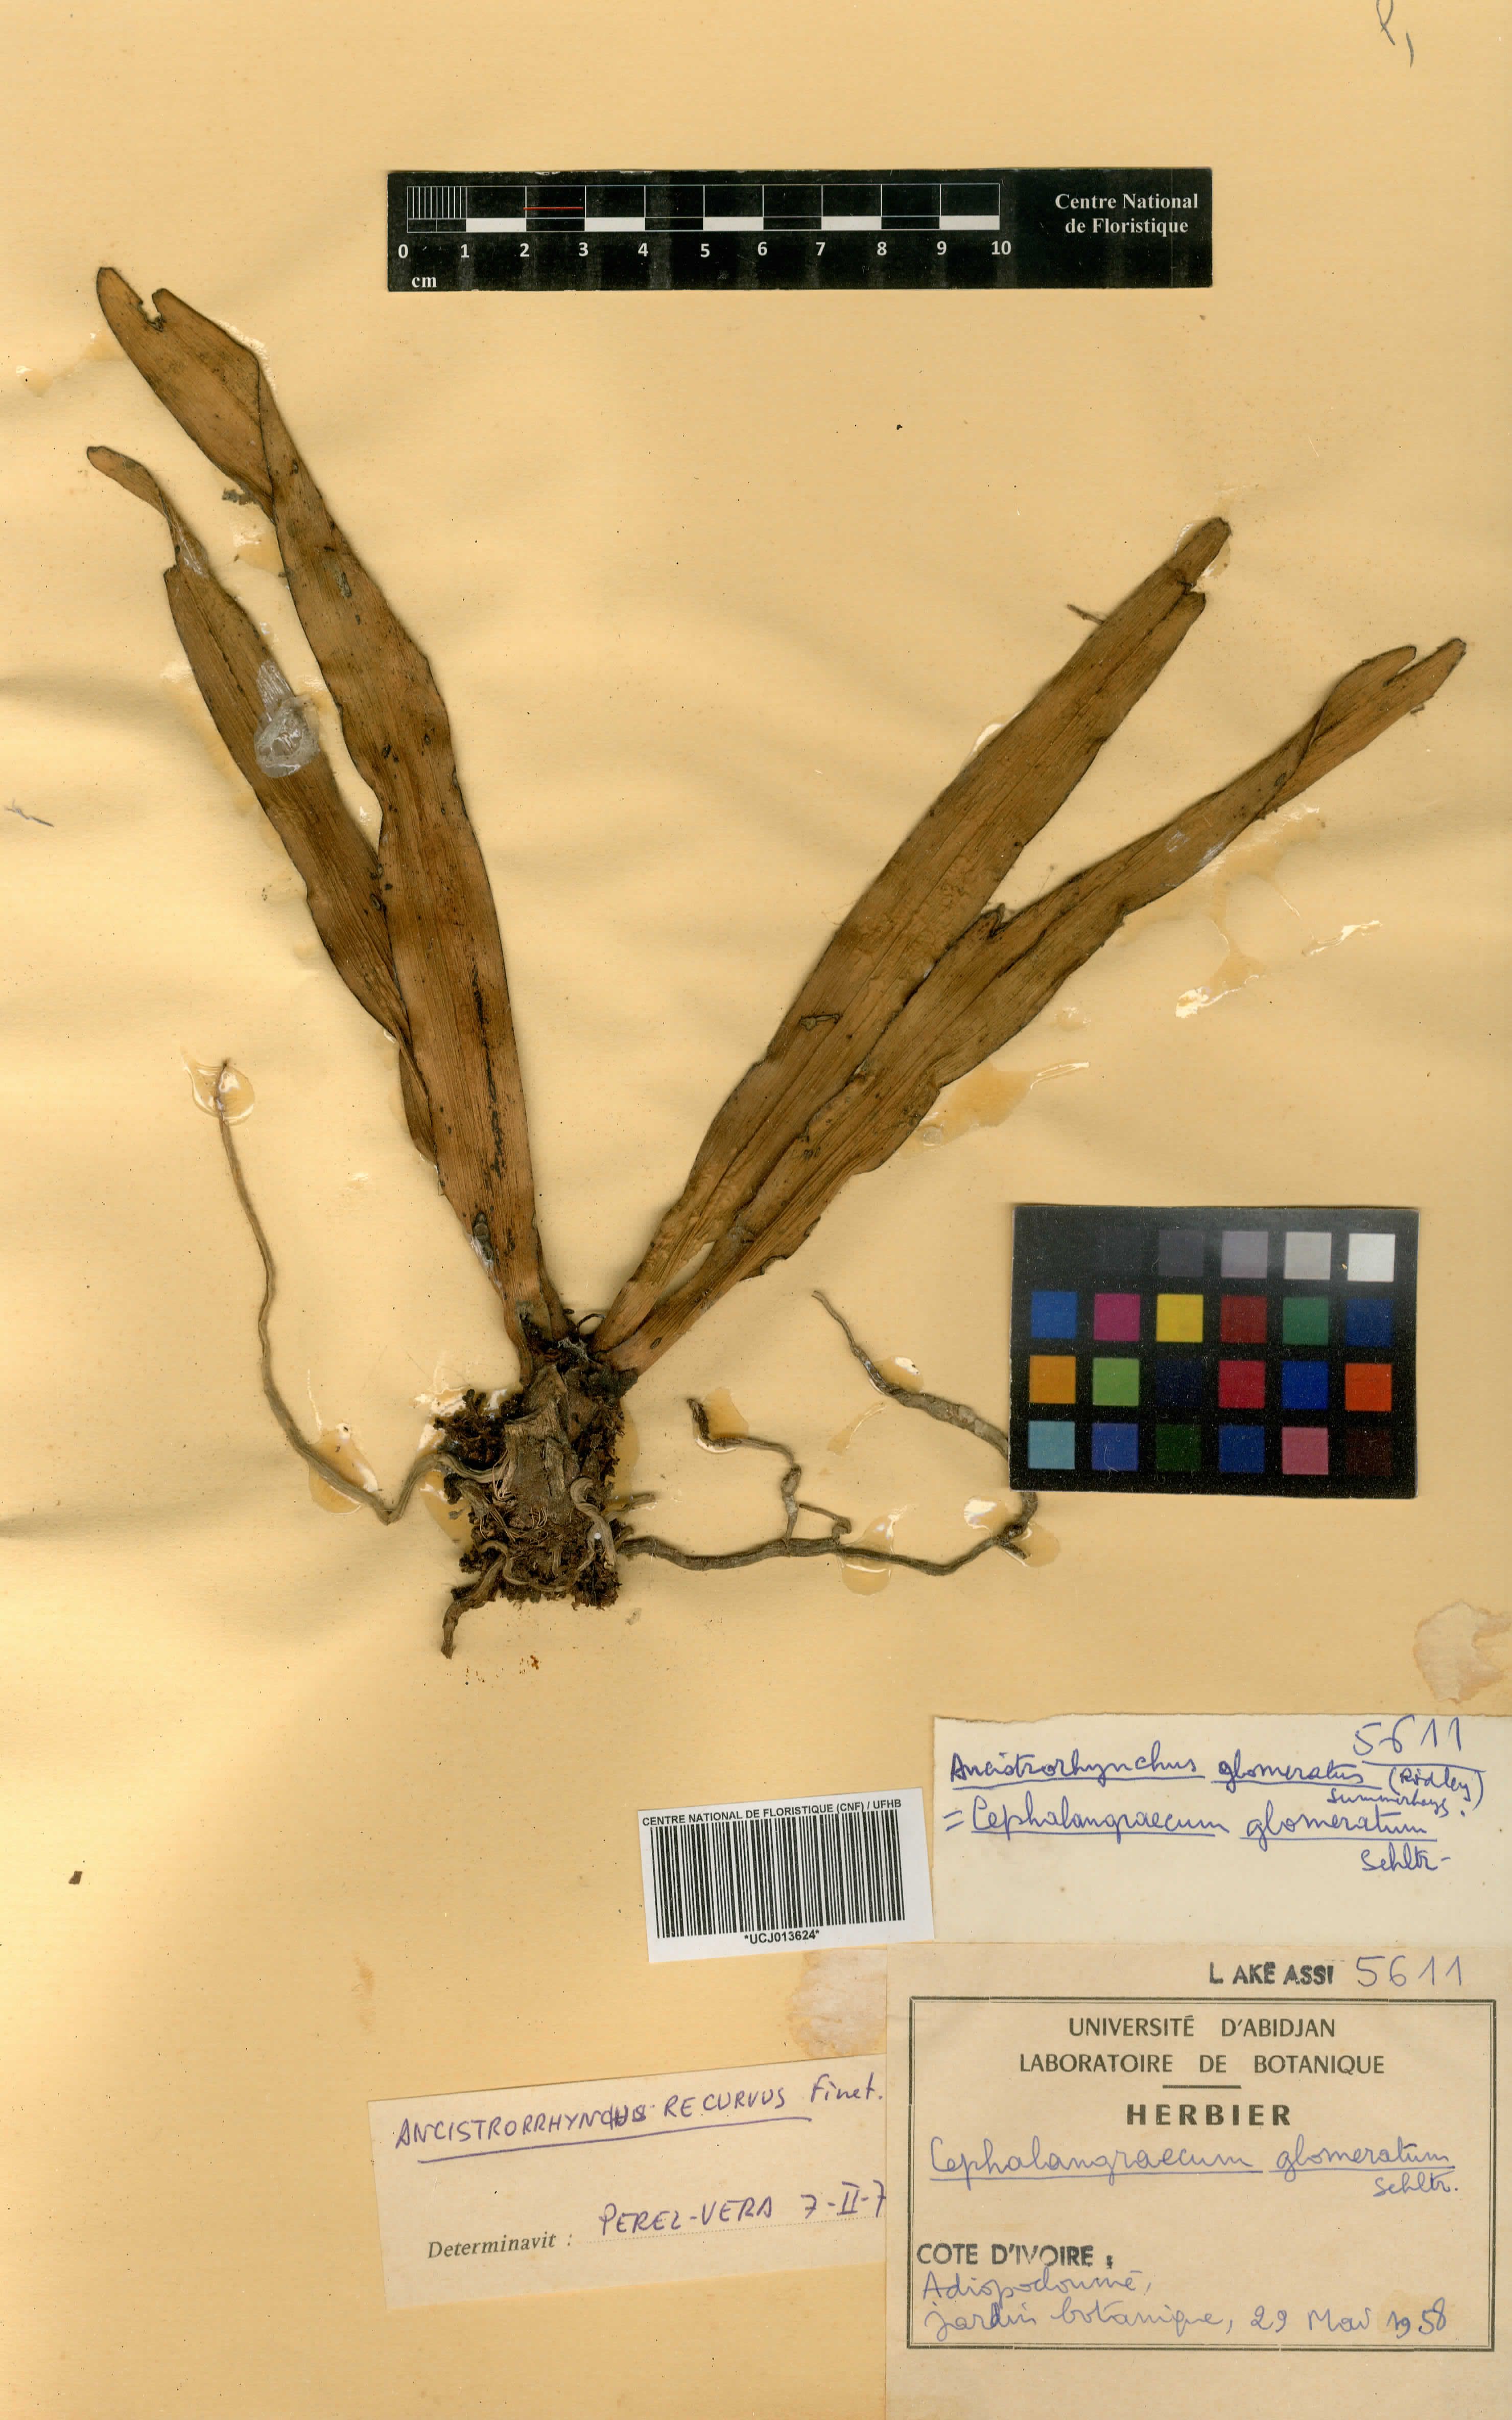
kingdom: Plantae
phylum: Tracheophyta
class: Liliopsida
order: Asparagales
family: Orchidaceae
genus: Ancistrorhynchus
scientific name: Ancistrorhynchus cephalotes
